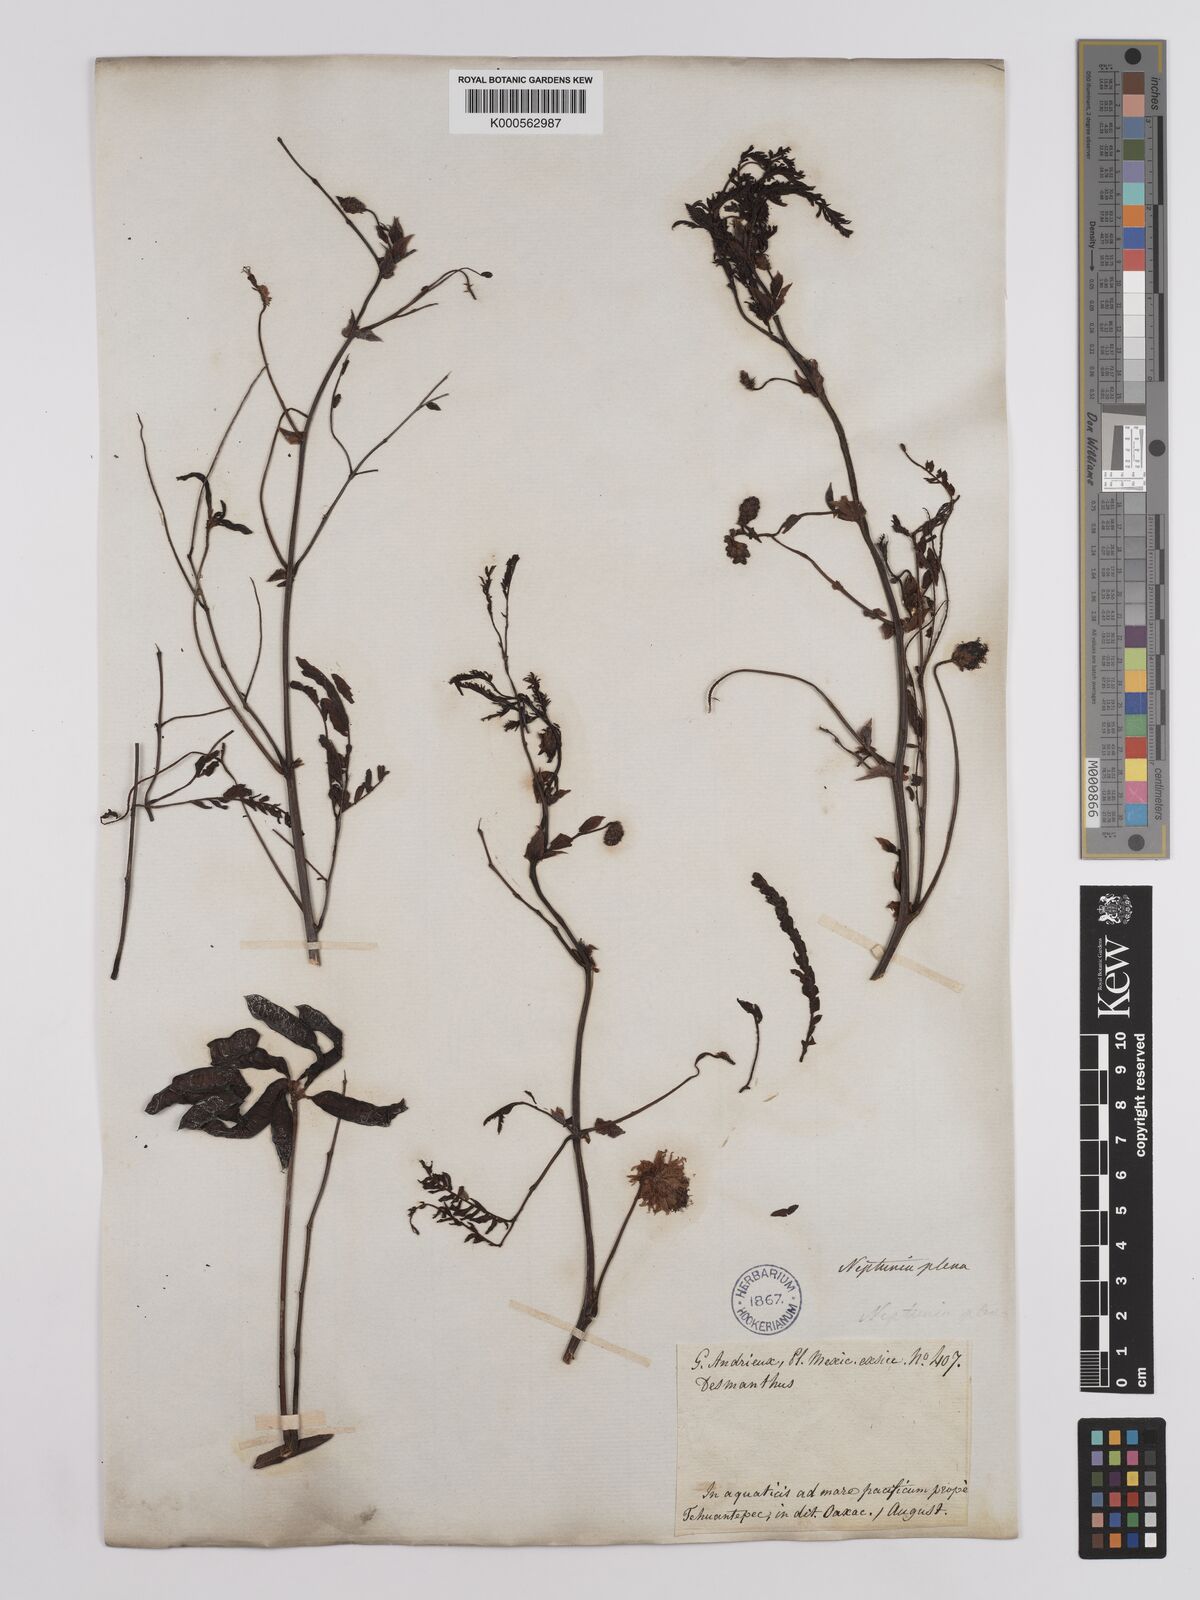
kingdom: Plantae
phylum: Tracheophyta
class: Magnoliopsida
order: Fabales
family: Fabaceae
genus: Neptunia
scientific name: Neptunia plena
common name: Dead and awake
